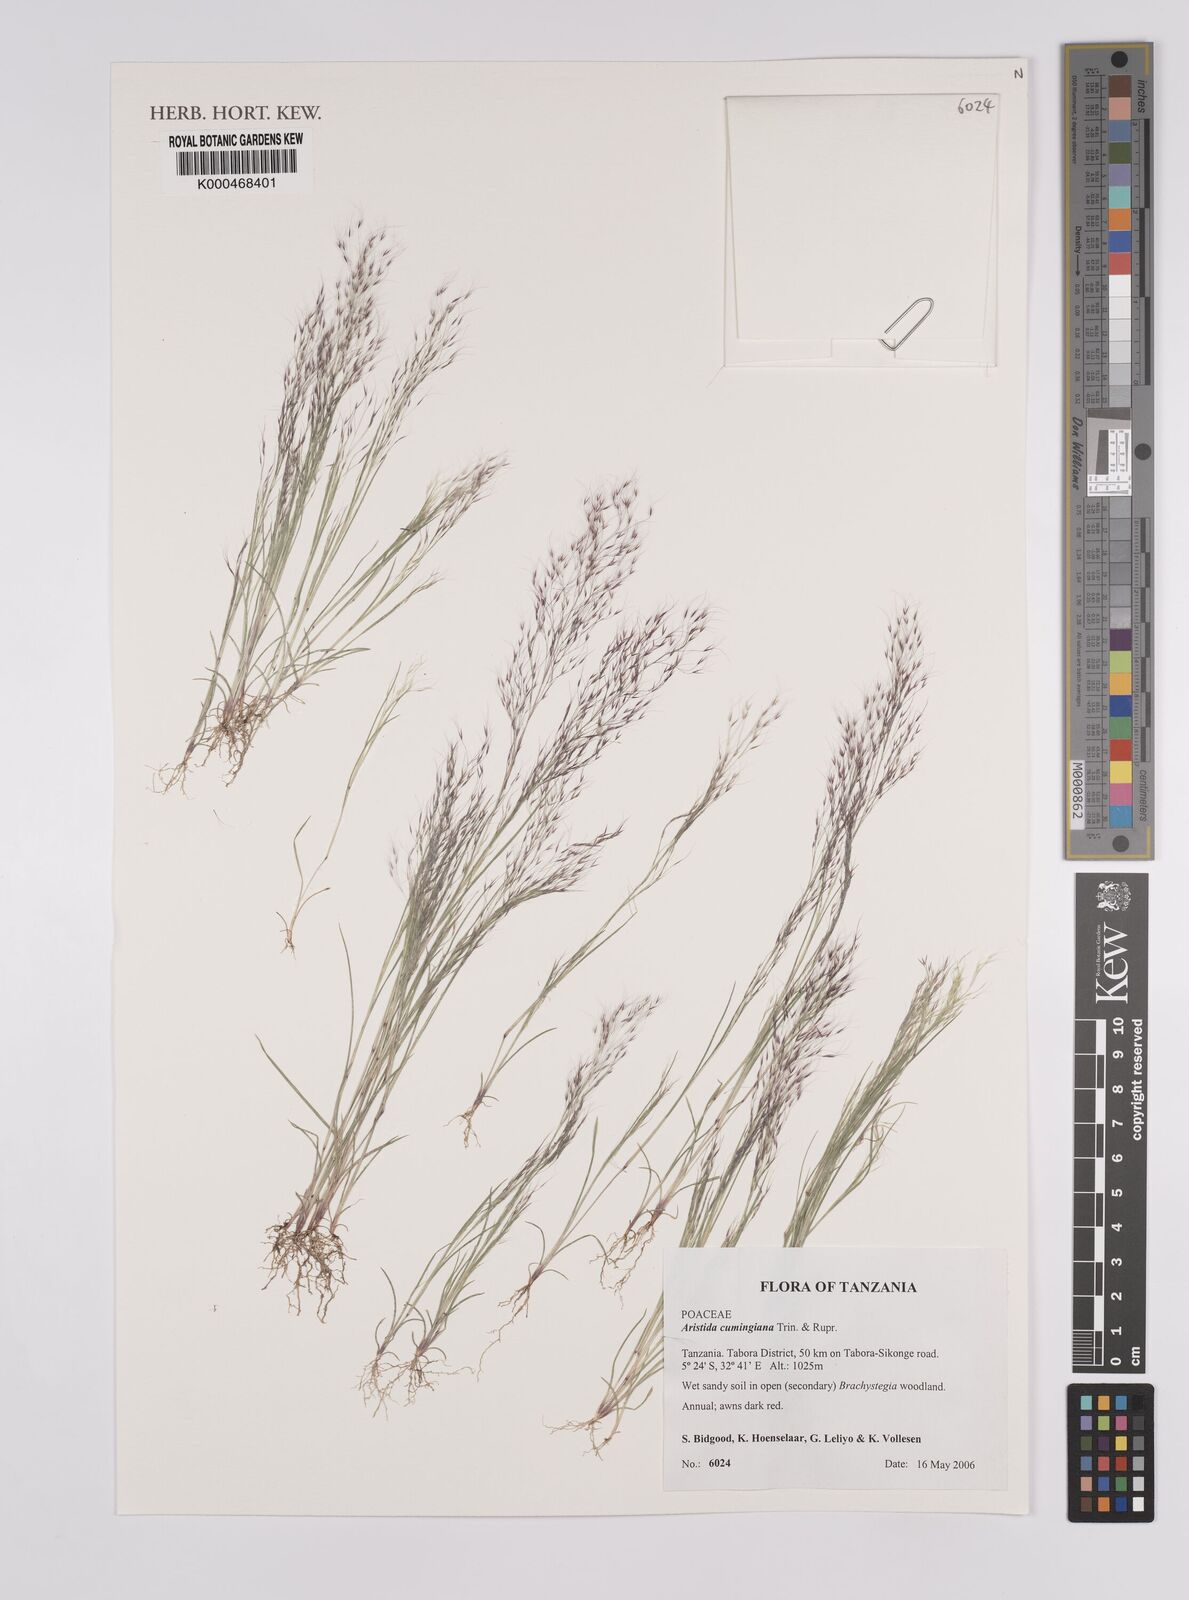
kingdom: Plantae
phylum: Tracheophyta
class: Liliopsida
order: Poales
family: Poaceae
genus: Aristida
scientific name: Aristida cumingiana
